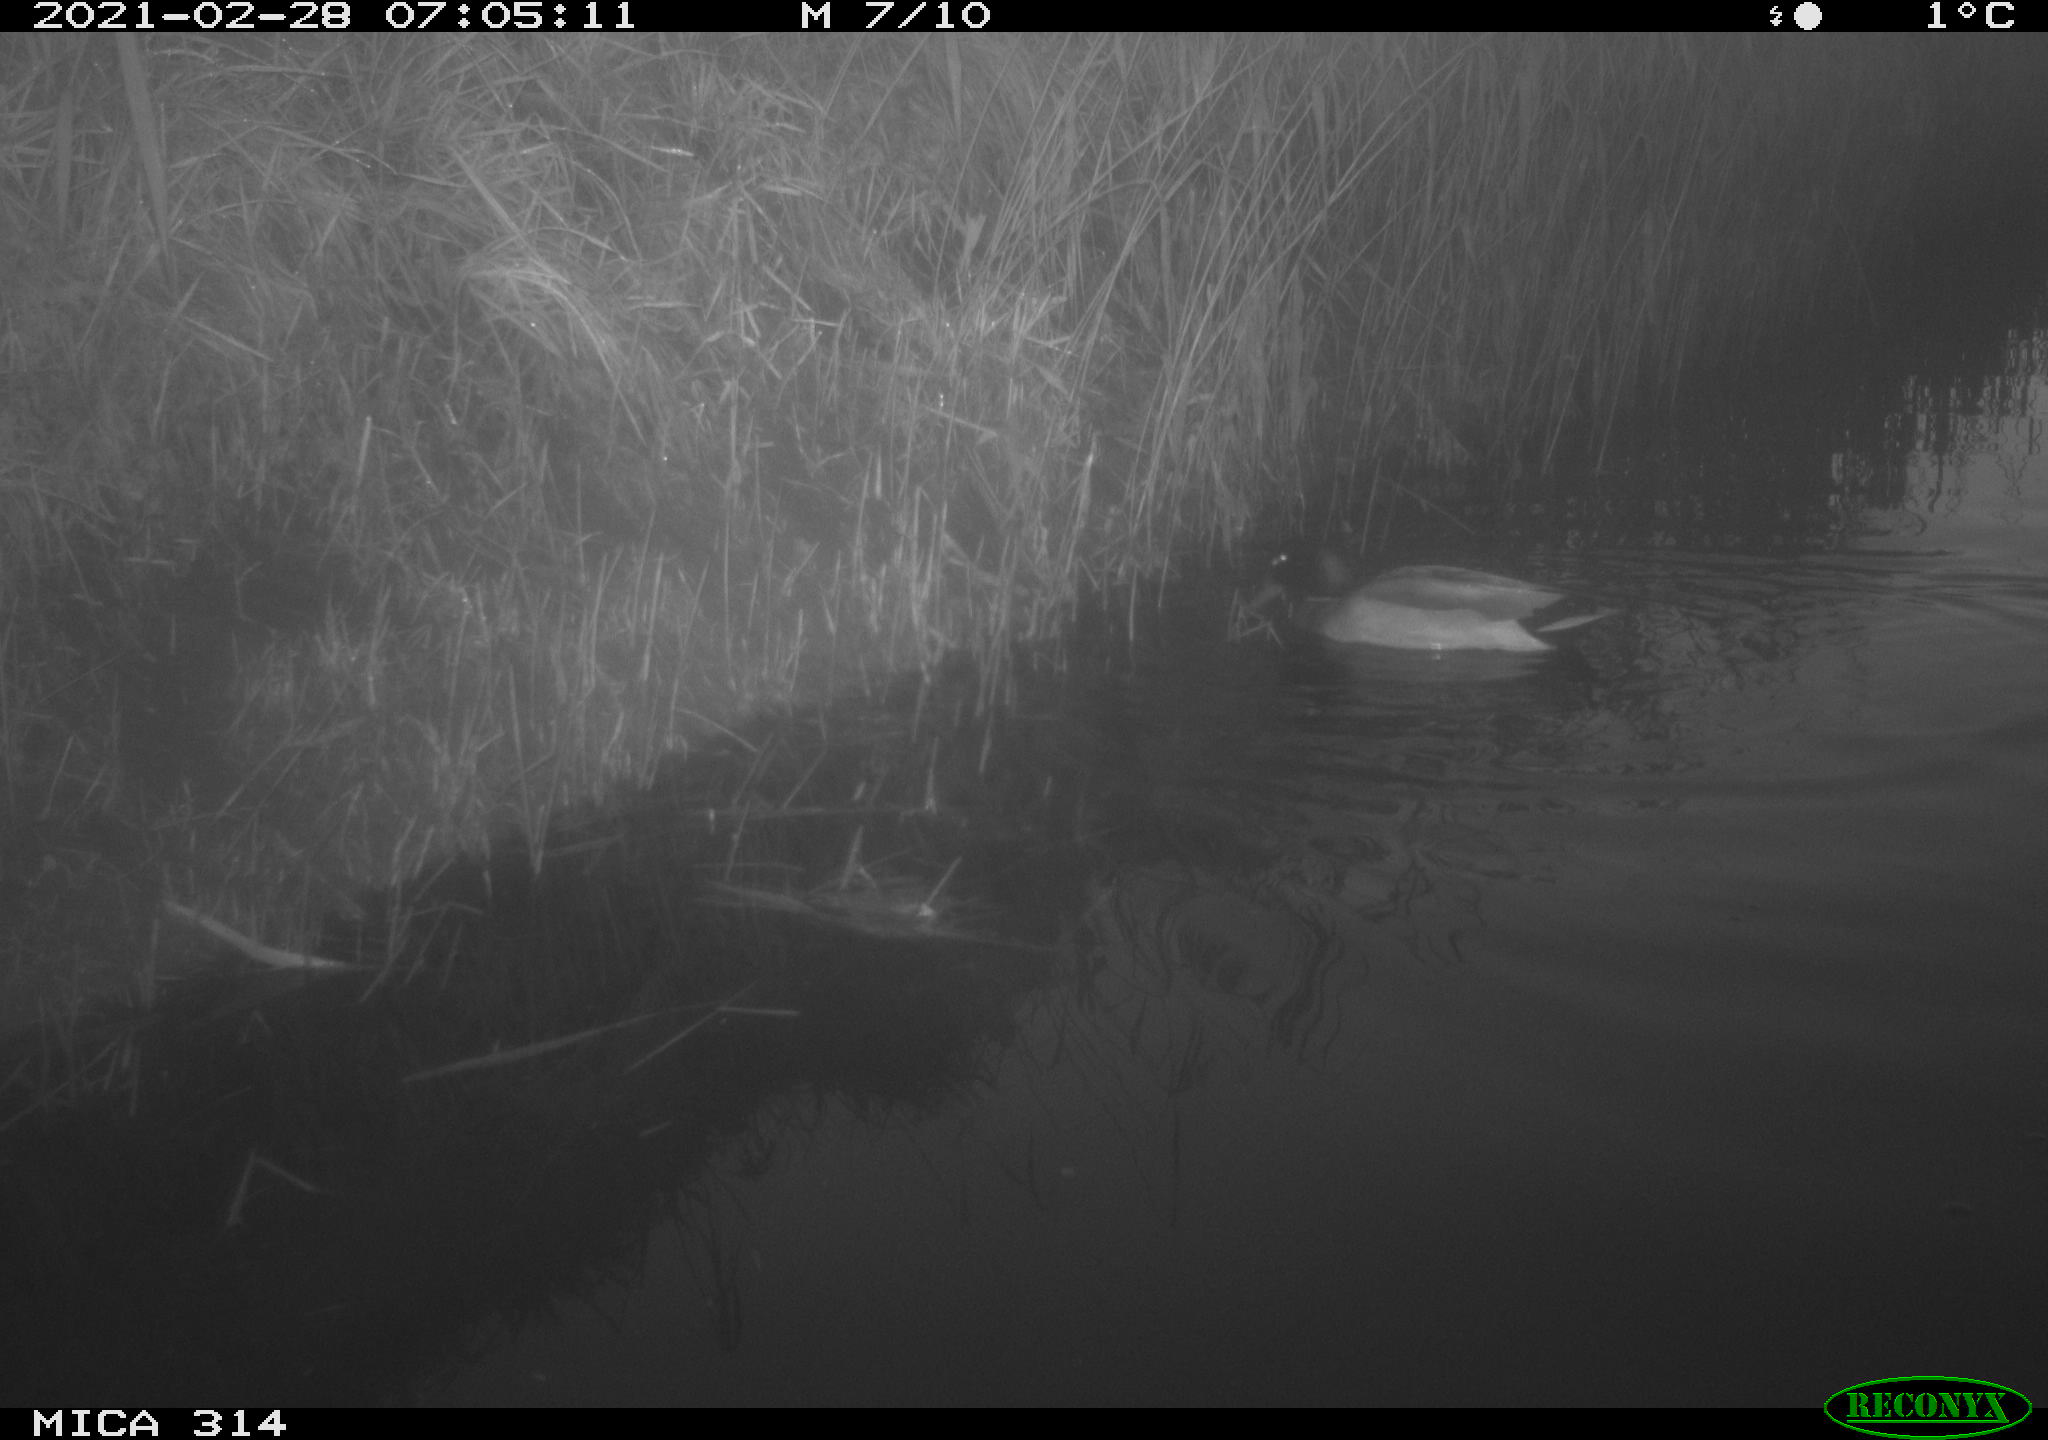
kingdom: Animalia
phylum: Chordata
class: Aves
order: Anseriformes
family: Anatidae
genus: Anas
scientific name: Anas platyrhynchos
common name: Mallard
